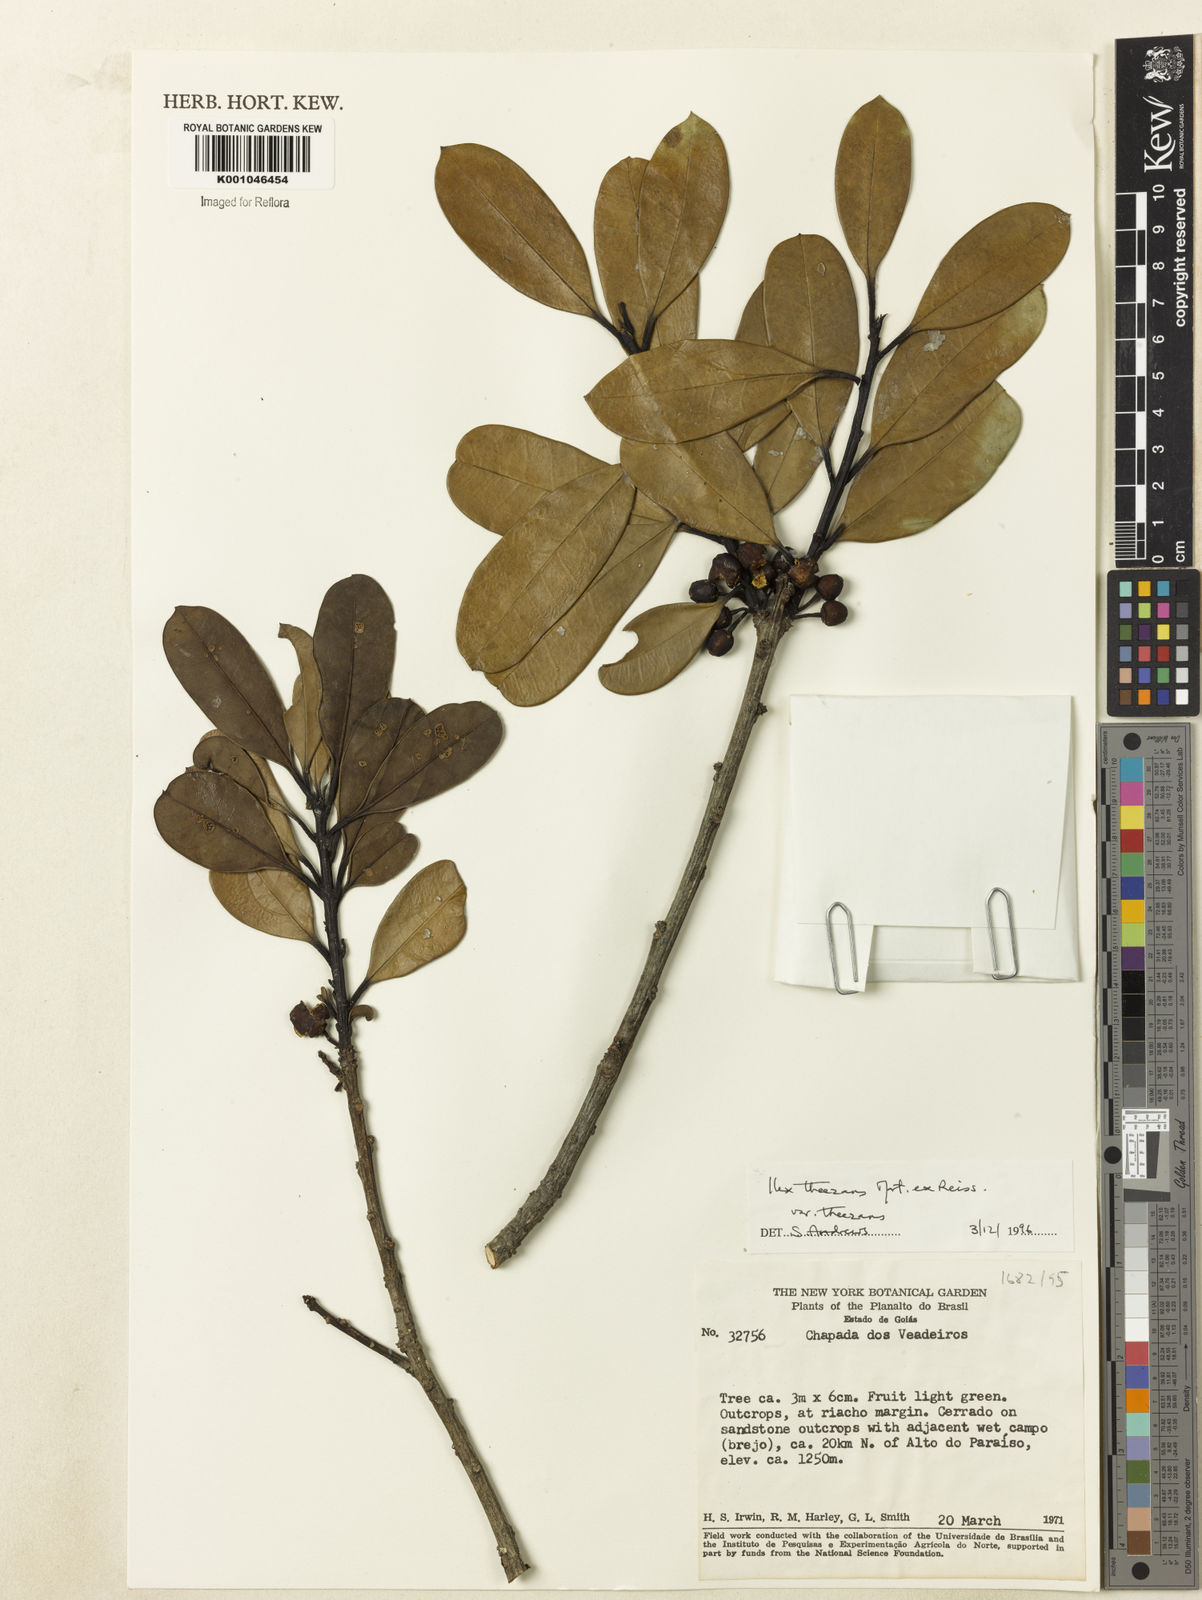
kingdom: Plantae
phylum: Tracheophyta
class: Magnoliopsida
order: Aquifoliales
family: Aquifoliaceae
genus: Ilex
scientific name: Ilex paraguariensis
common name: Paraguay tea
